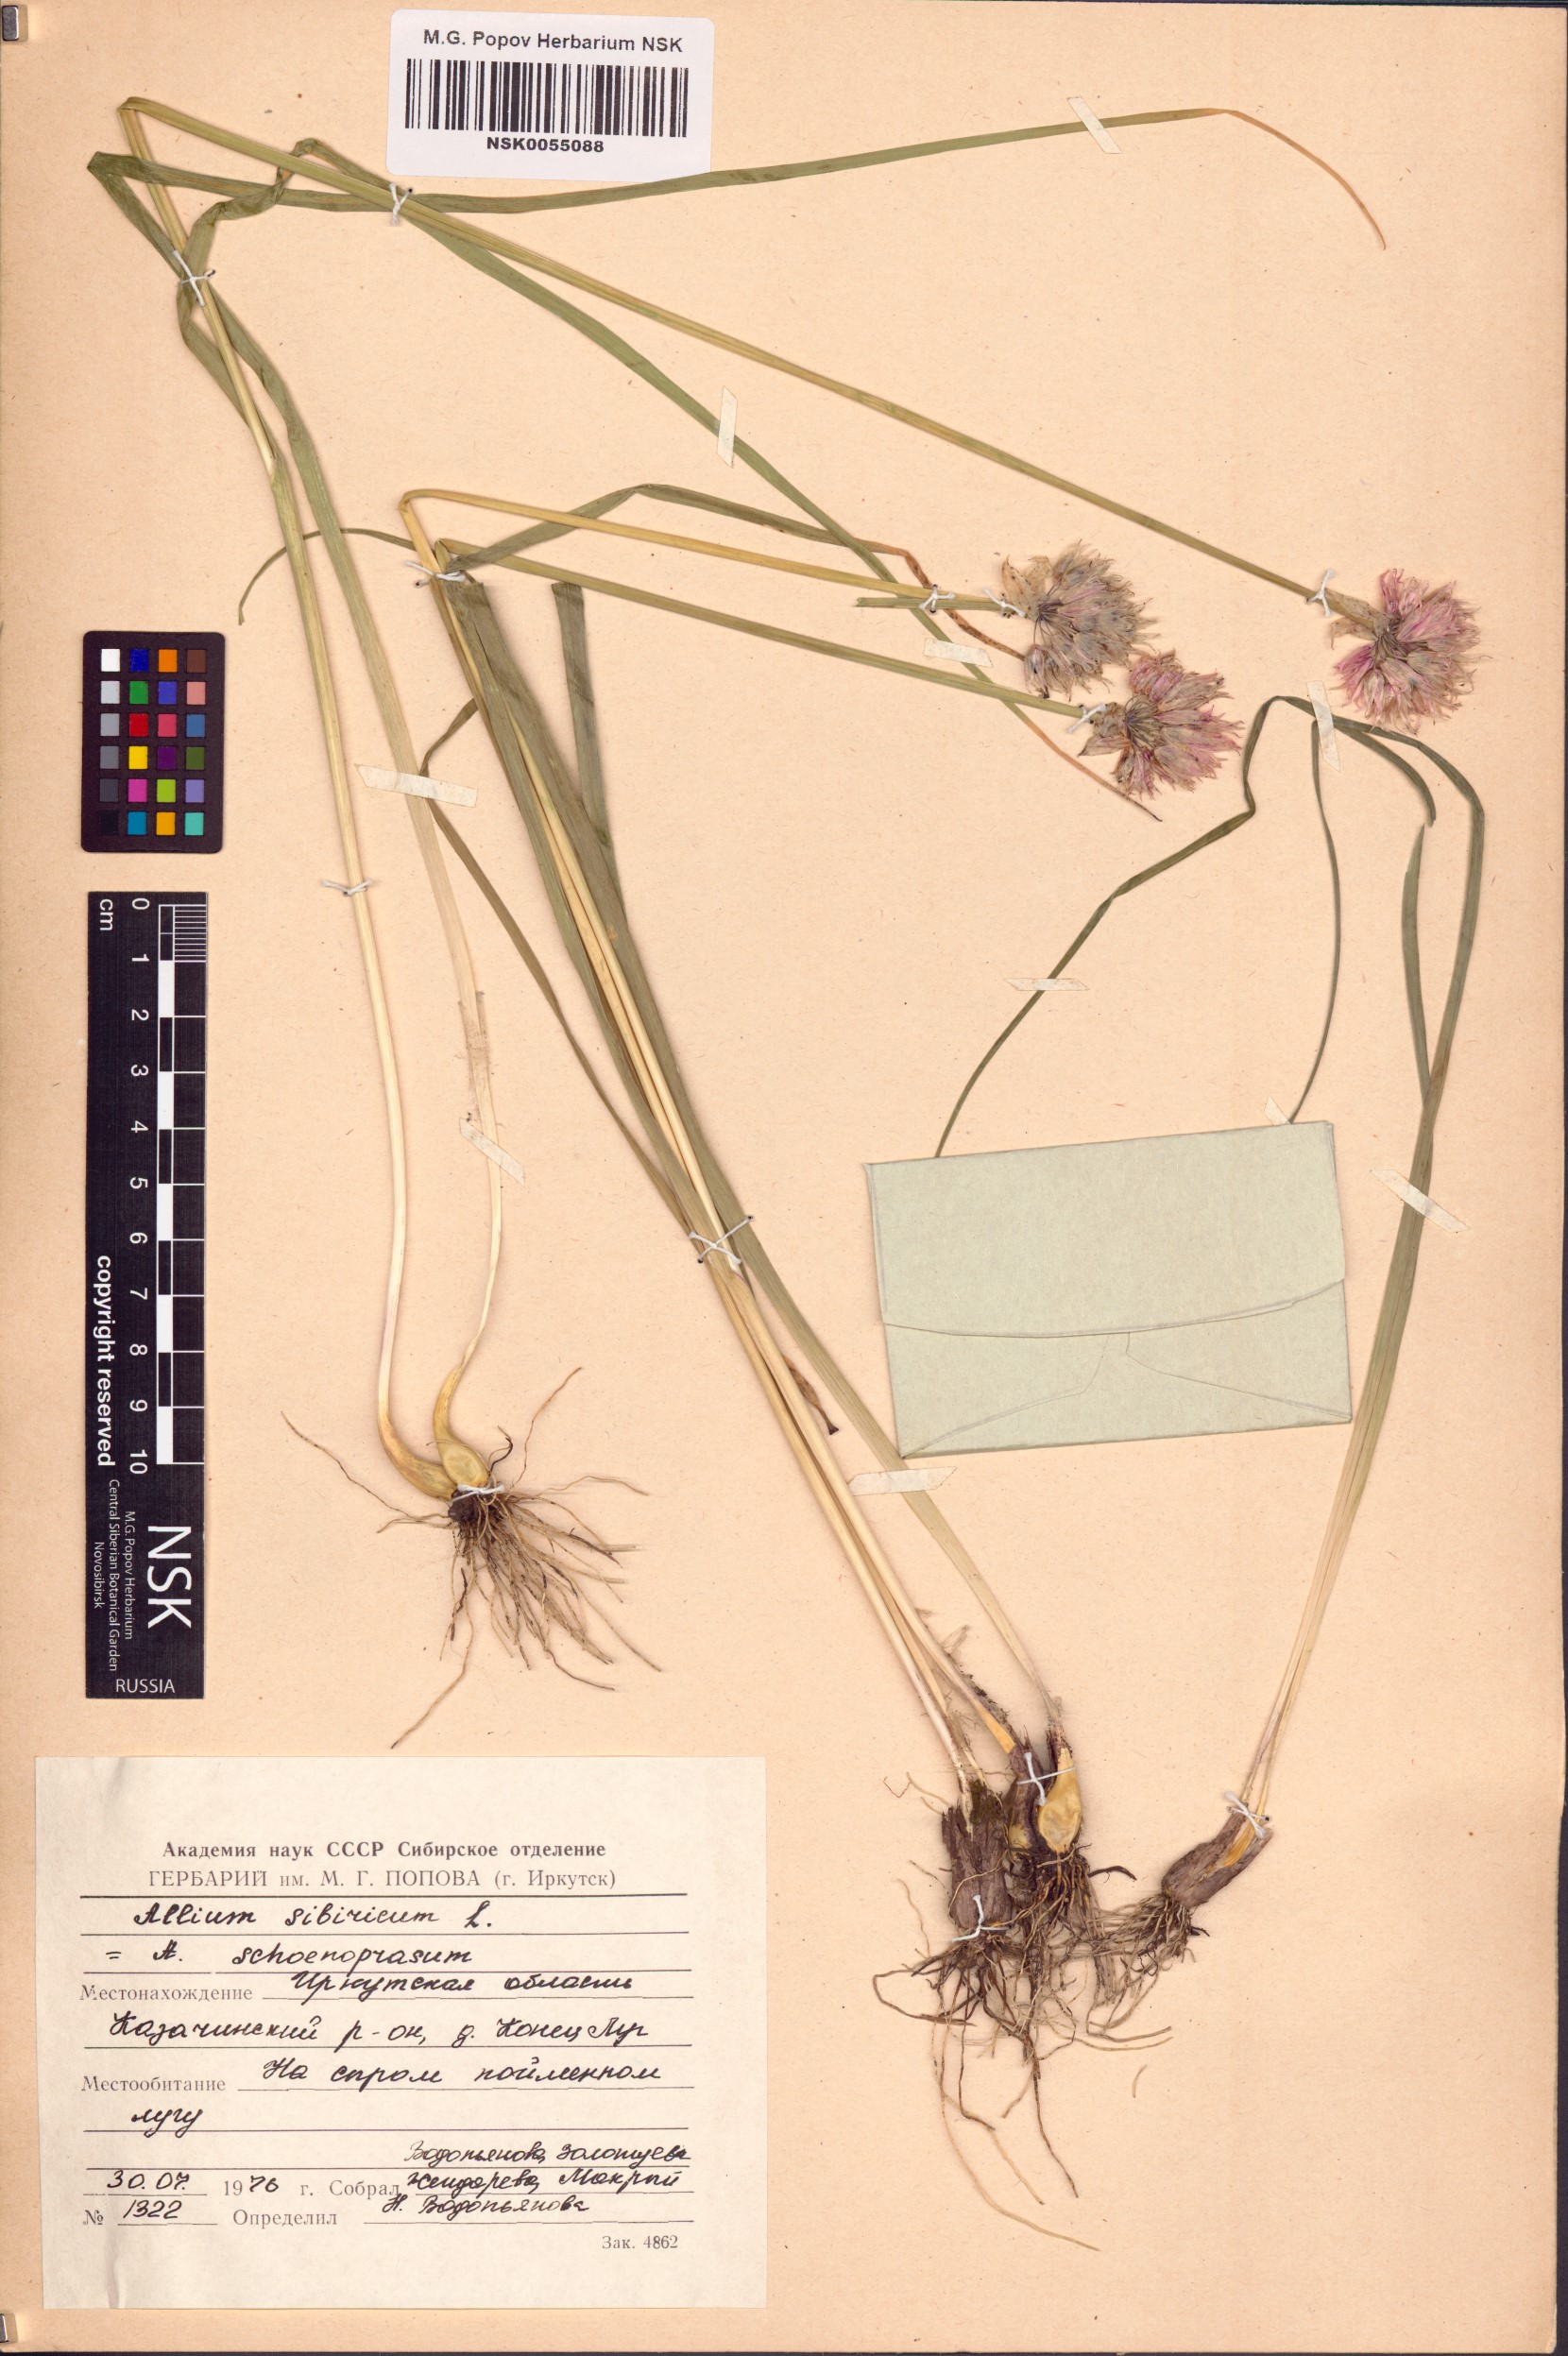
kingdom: Plantae
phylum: Tracheophyta
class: Liliopsida
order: Asparagales
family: Amaryllidaceae
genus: Allium
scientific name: Allium schoenoprasum
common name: Chives
